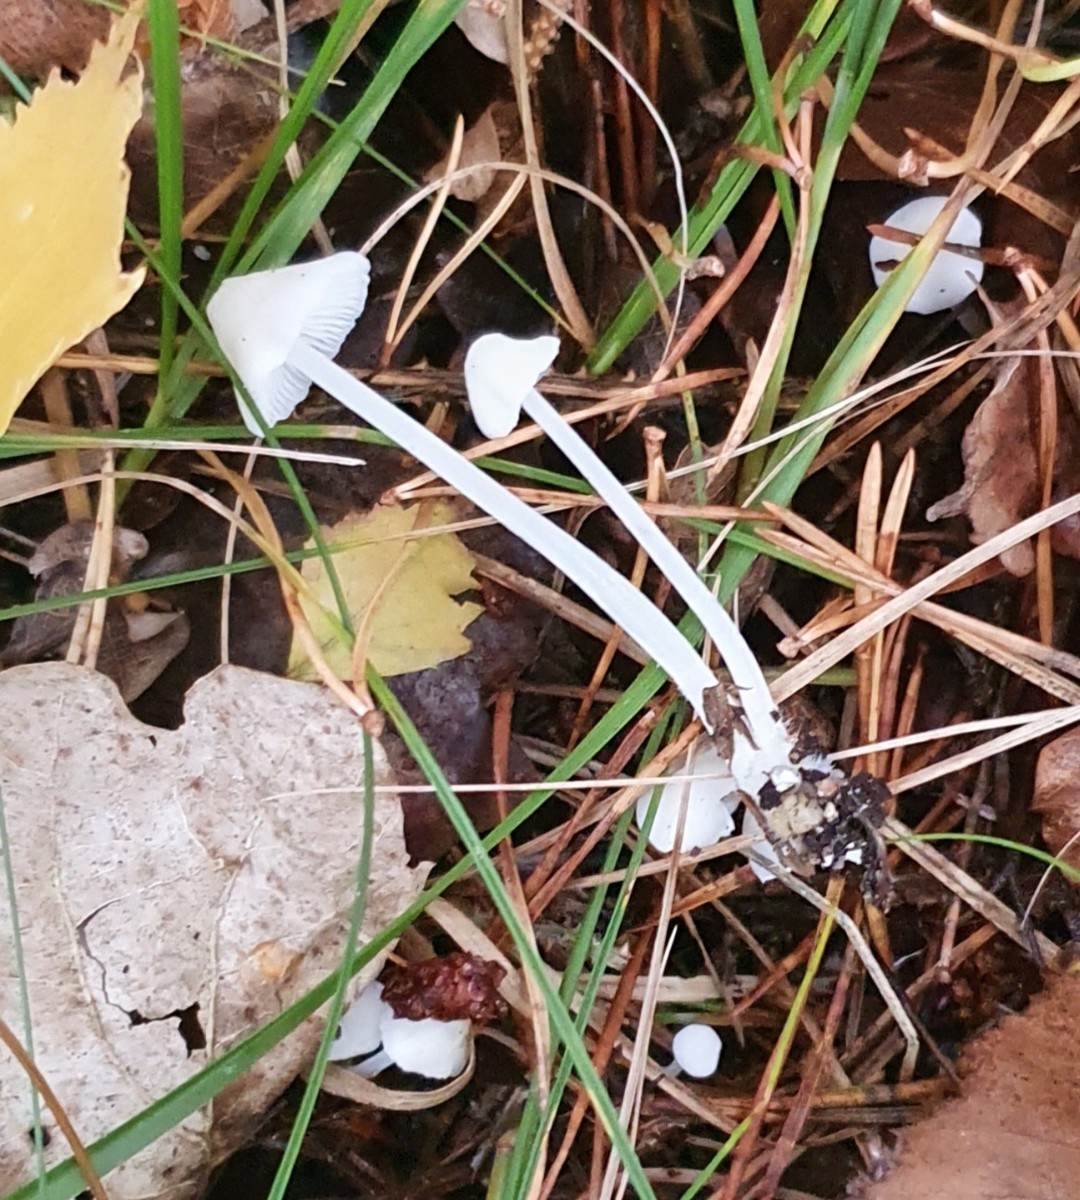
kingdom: Fungi
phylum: Basidiomycota
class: Agaricomycetes
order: Agaricales
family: Mycenaceae
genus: Hemimycena
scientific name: Hemimycena
